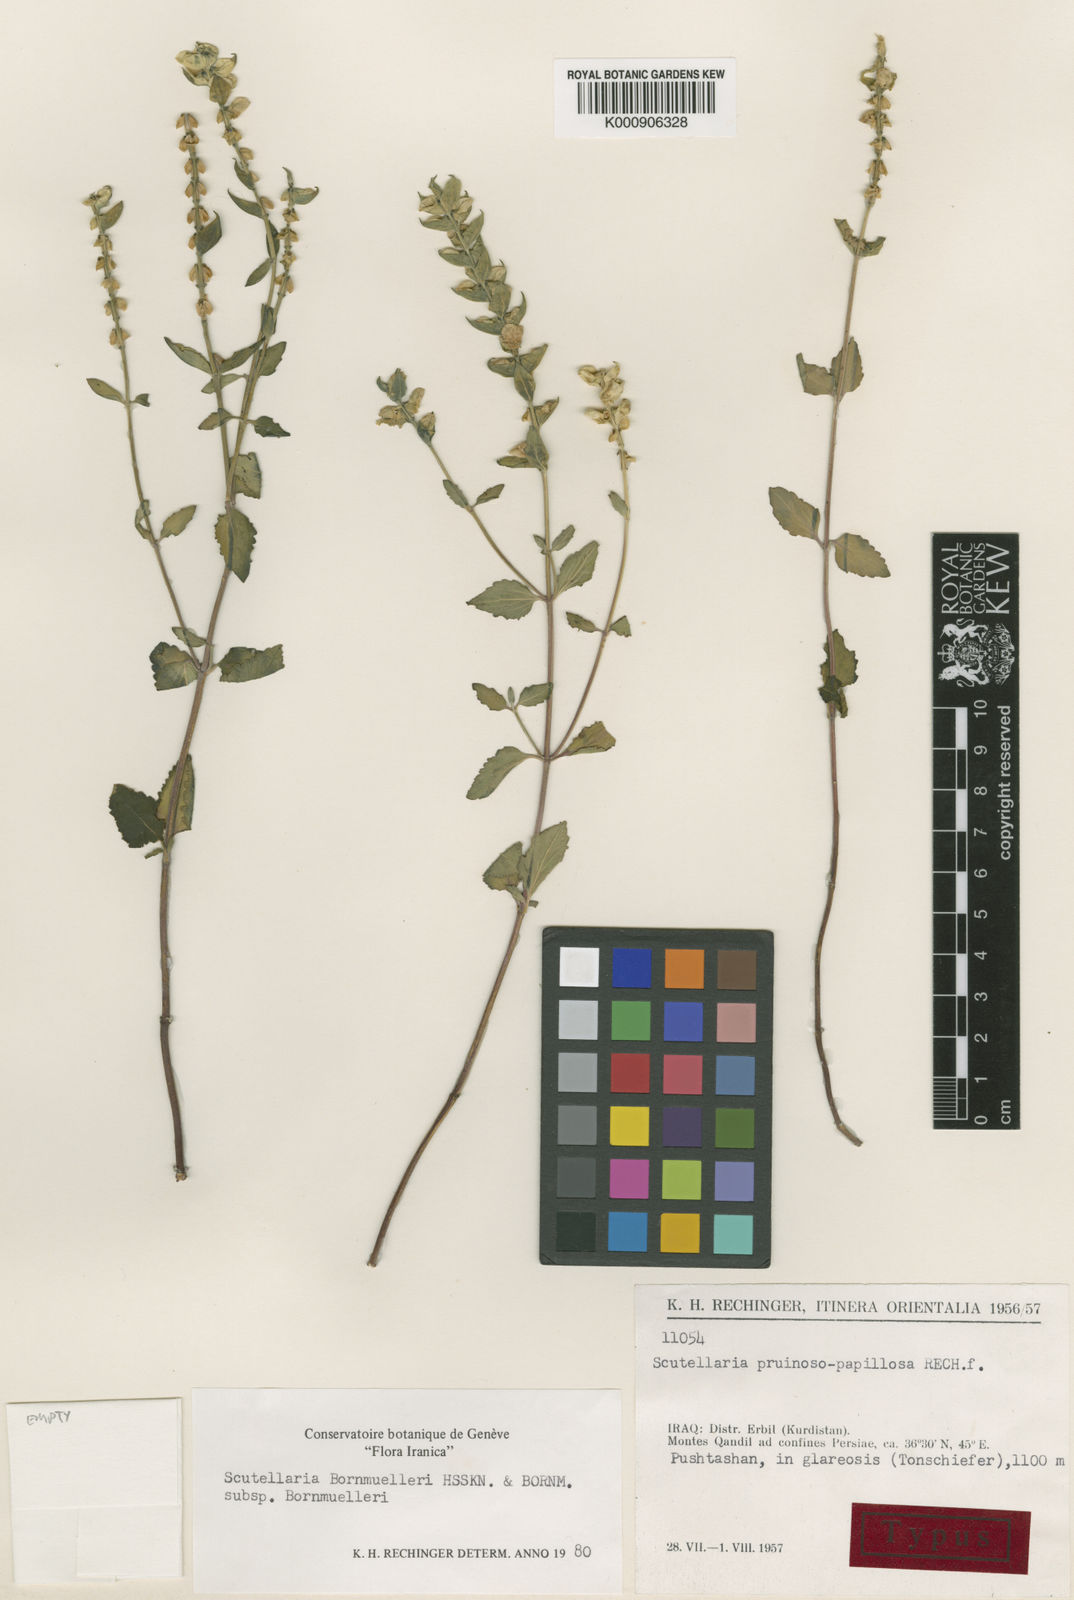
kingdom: Plantae
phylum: Tracheophyta
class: Magnoliopsida
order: Lamiales
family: Lamiaceae
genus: Scutellaria
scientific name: Scutellaria bornmuelleri
